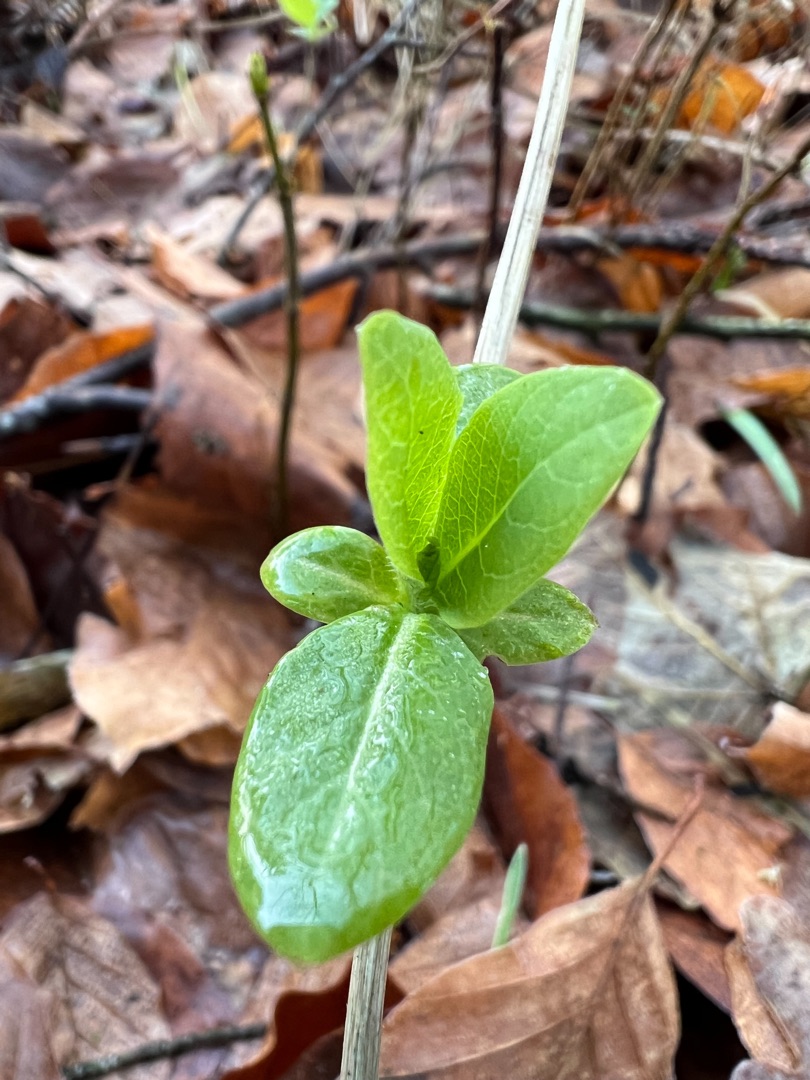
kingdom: Plantae
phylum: Tracheophyta
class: Magnoliopsida
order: Dipsacales
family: Caprifoliaceae
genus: Lonicera
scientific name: Lonicera periclymenum
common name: Almindelig gedeblad
